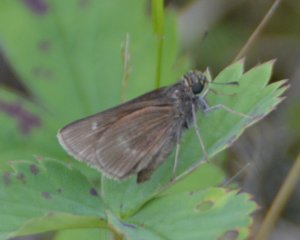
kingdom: Animalia
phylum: Arthropoda
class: Insecta
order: Lepidoptera
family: Hesperiidae
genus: Polites
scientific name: Polites themistocles
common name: Tawny-edged Skipper
